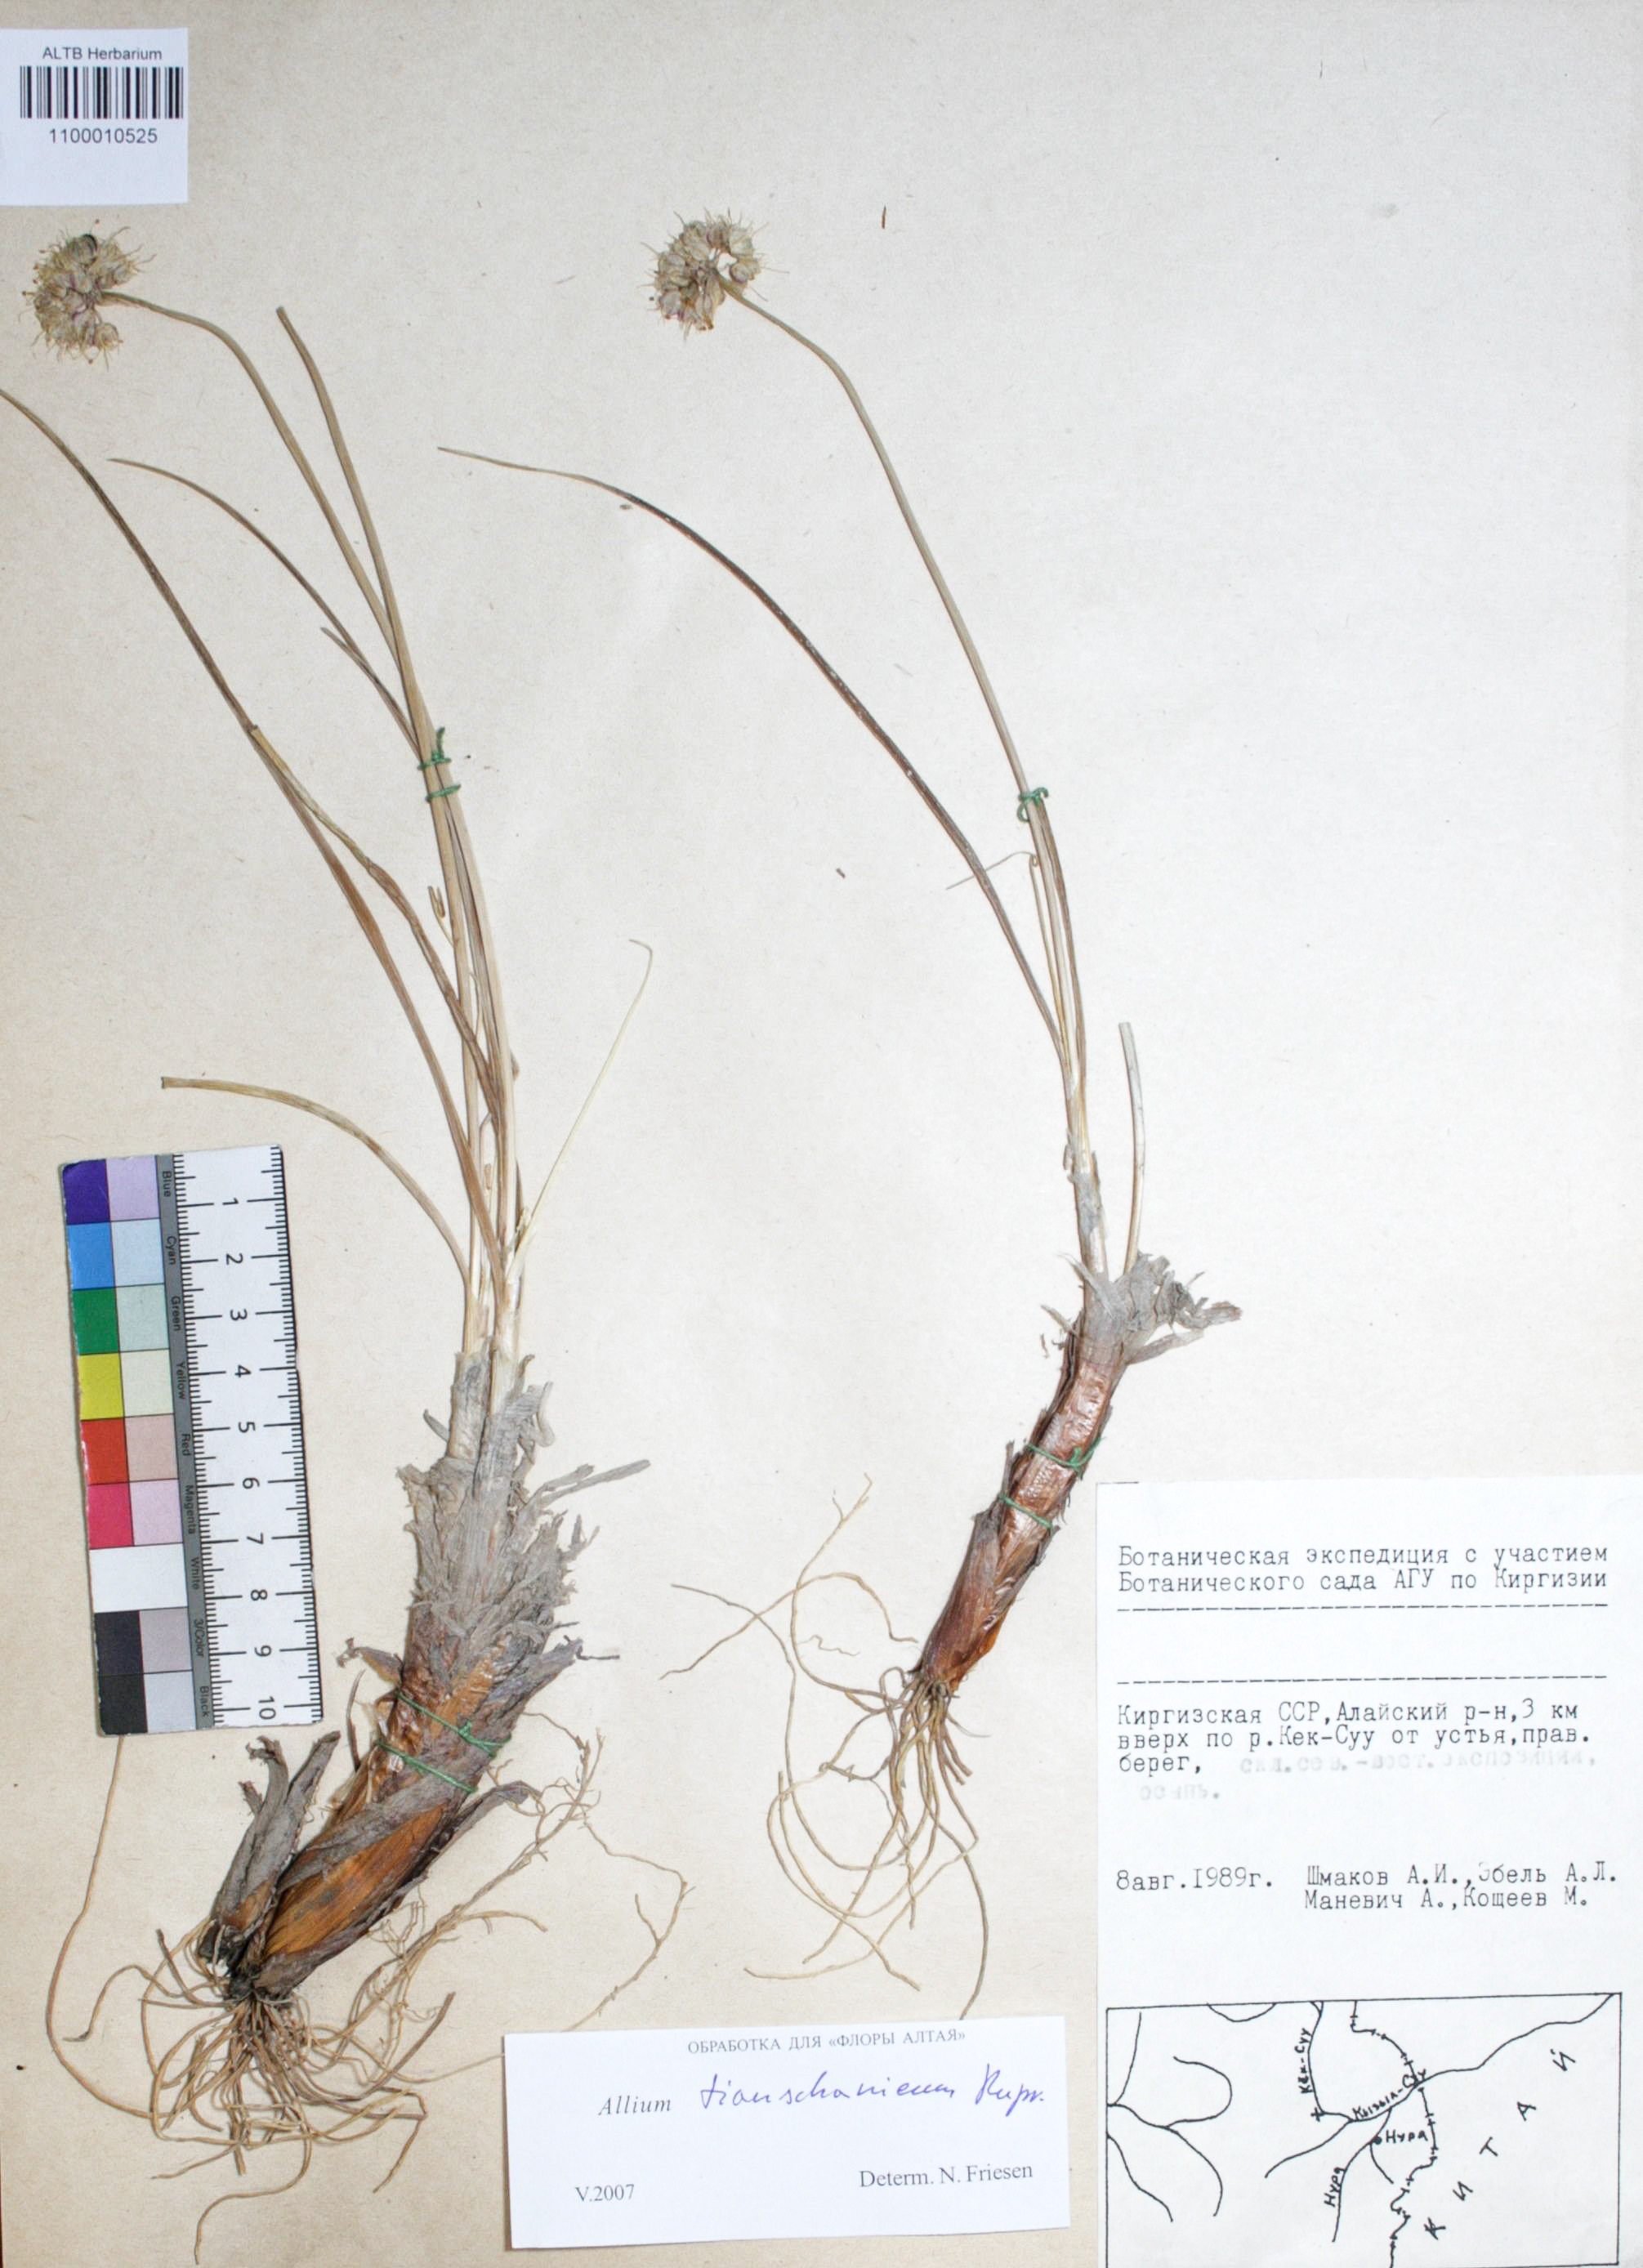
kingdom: Plantae
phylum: Tracheophyta
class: Liliopsida
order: Asparagales
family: Amaryllidaceae
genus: Allium
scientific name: Allium tianschanicum
